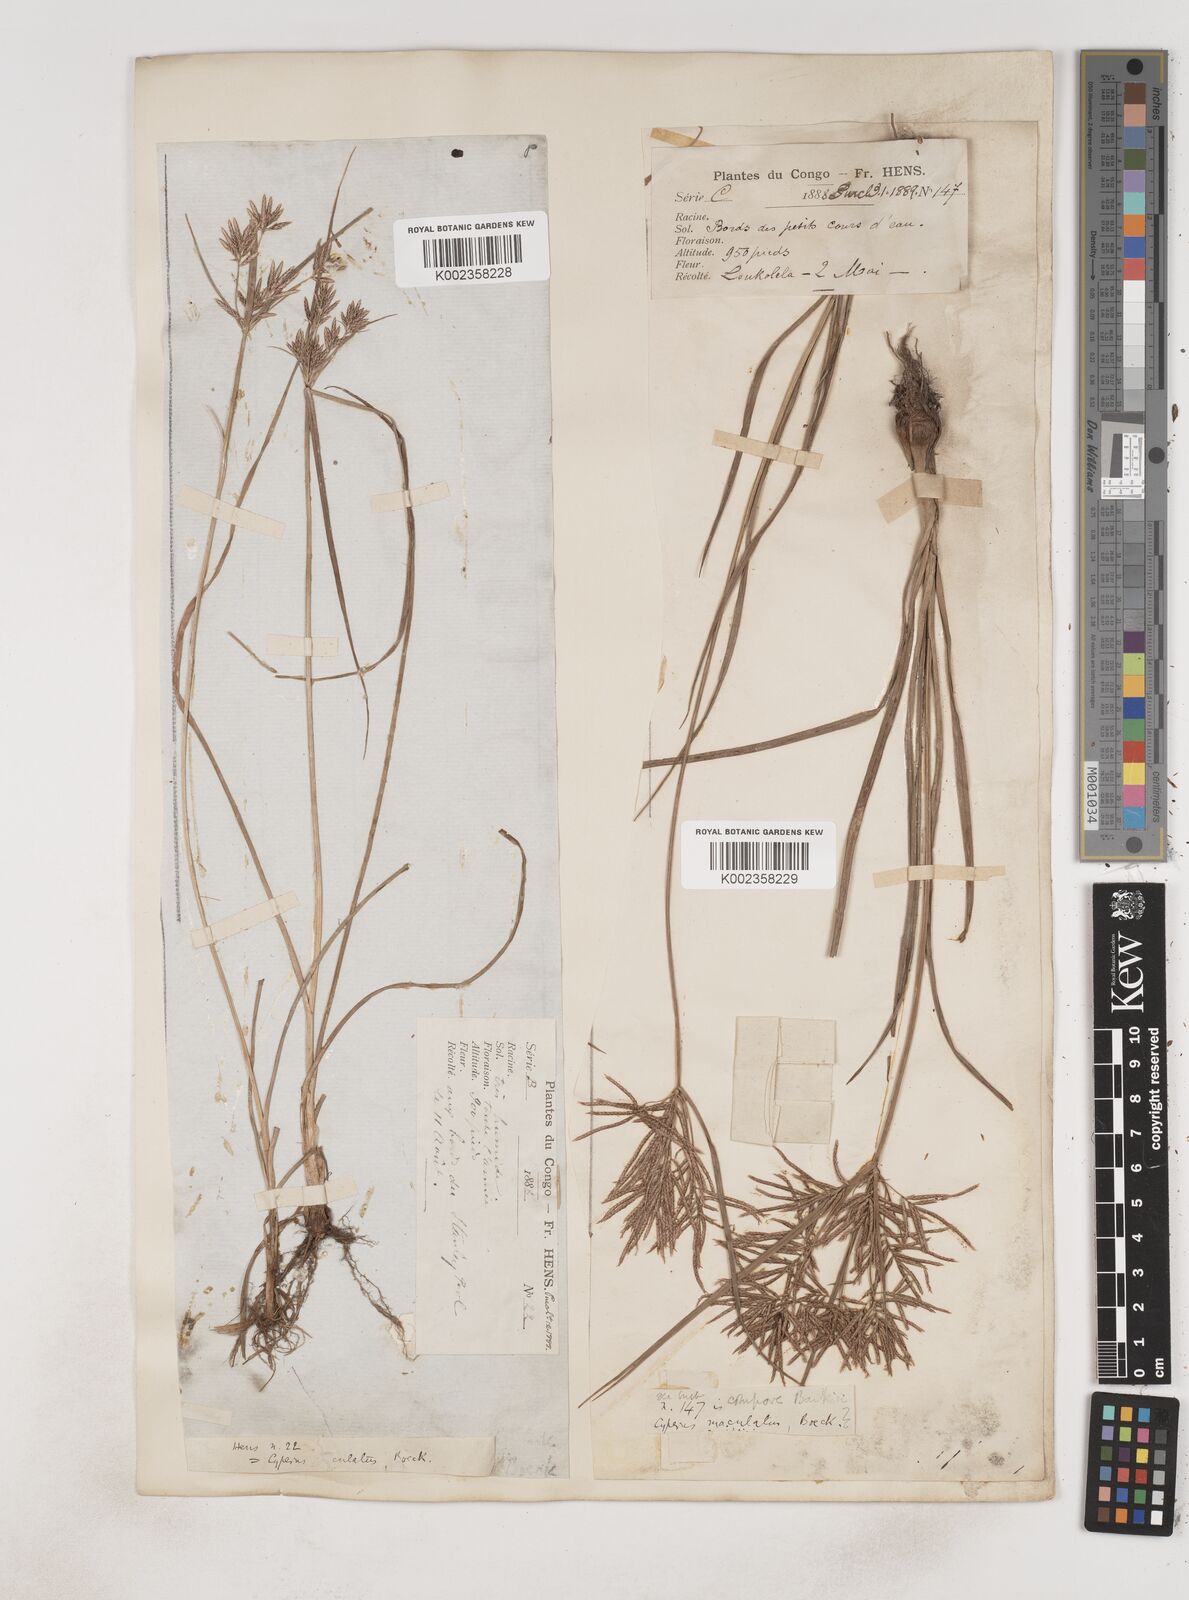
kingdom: Plantae
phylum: Tracheophyta
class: Liliopsida
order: Poales
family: Cyperaceae
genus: Cyperus
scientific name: Cyperus maculatus
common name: Maculated sedge
